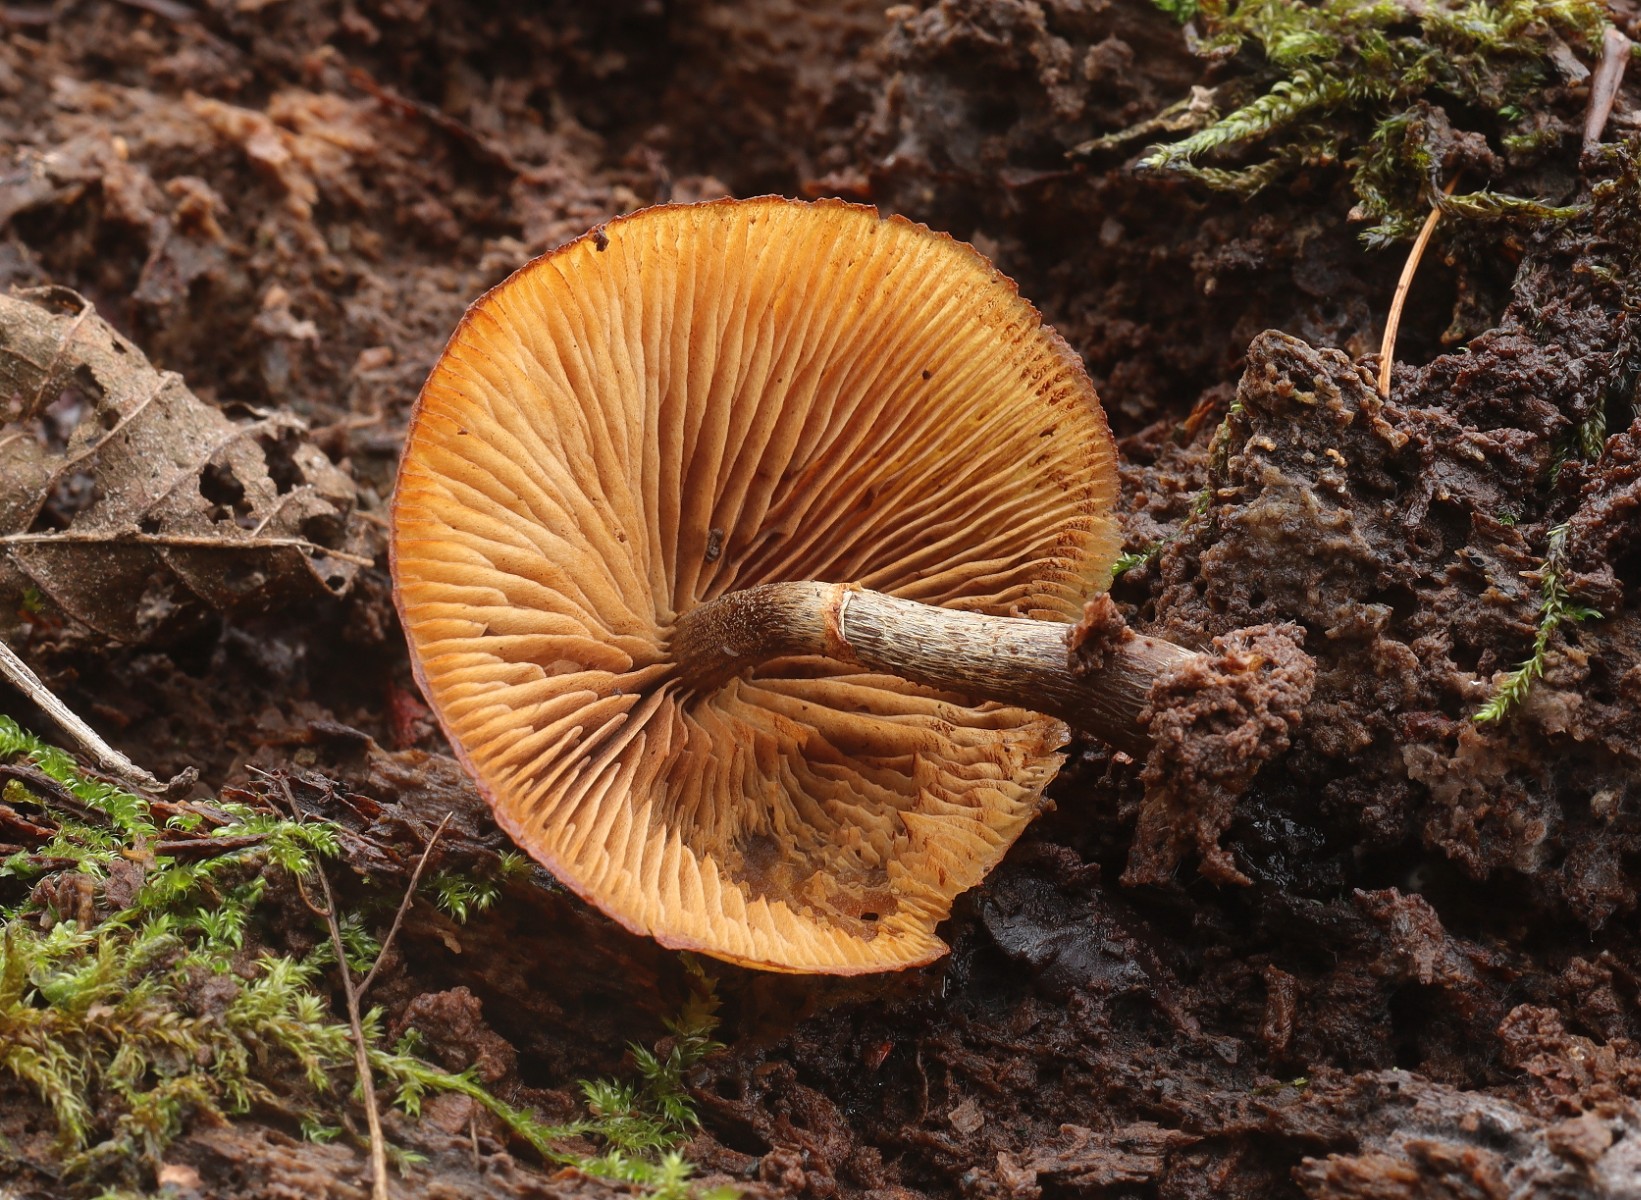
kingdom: Fungi
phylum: Basidiomycota
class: Agaricomycetes
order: Agaricales
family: Hymenogastraceae
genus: Galerina
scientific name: Galerina marginata
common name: randbæltet hjelmhat
